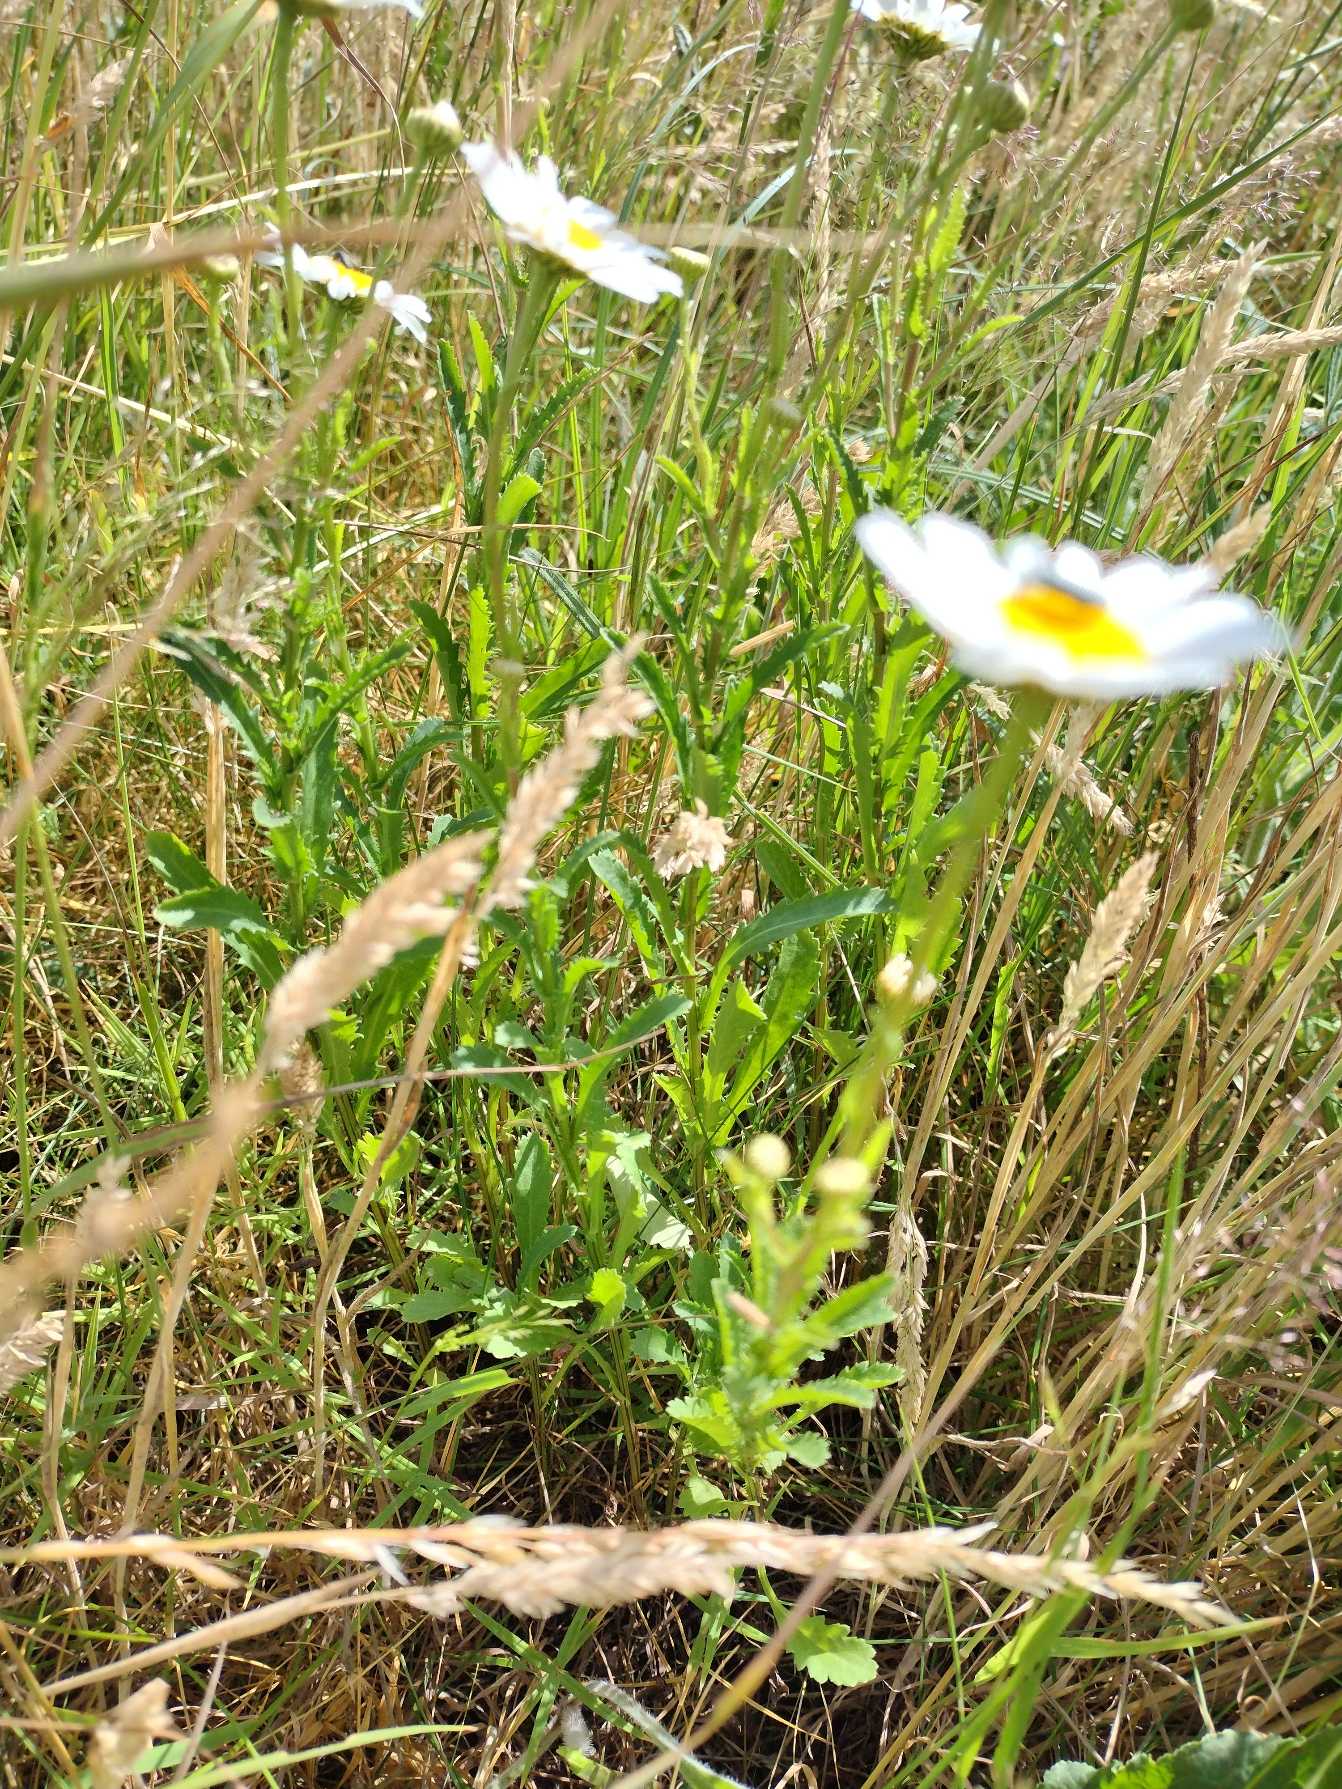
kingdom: Plantae
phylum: Tracheophyta
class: Magnoliopsida
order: Asterales
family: Asteraceae
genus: Leucanthemum
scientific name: Leucanthemum vulgare
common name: Hvid okseøje
